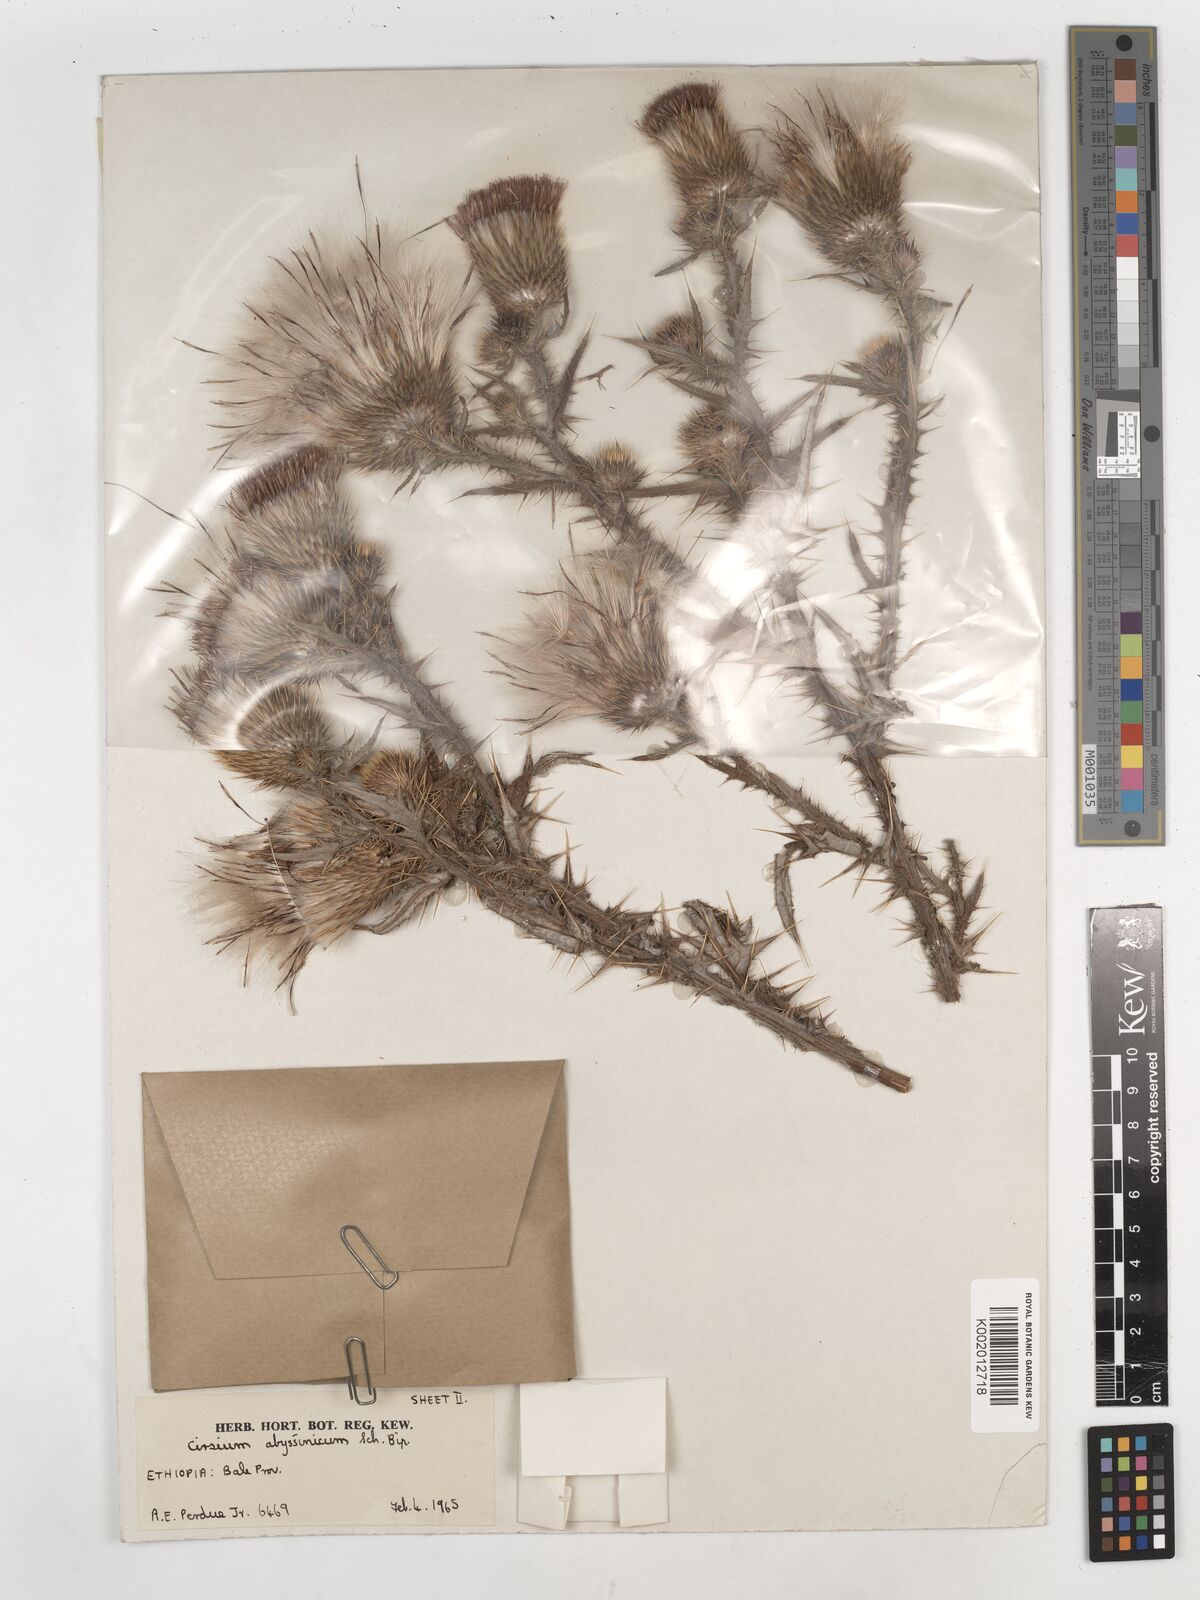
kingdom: Plantae
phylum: Tracheophyta
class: Magnoliopsida
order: Asterales
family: Asteraceae
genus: Cirsium
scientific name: Cirsium vulgare
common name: Bull thistle
